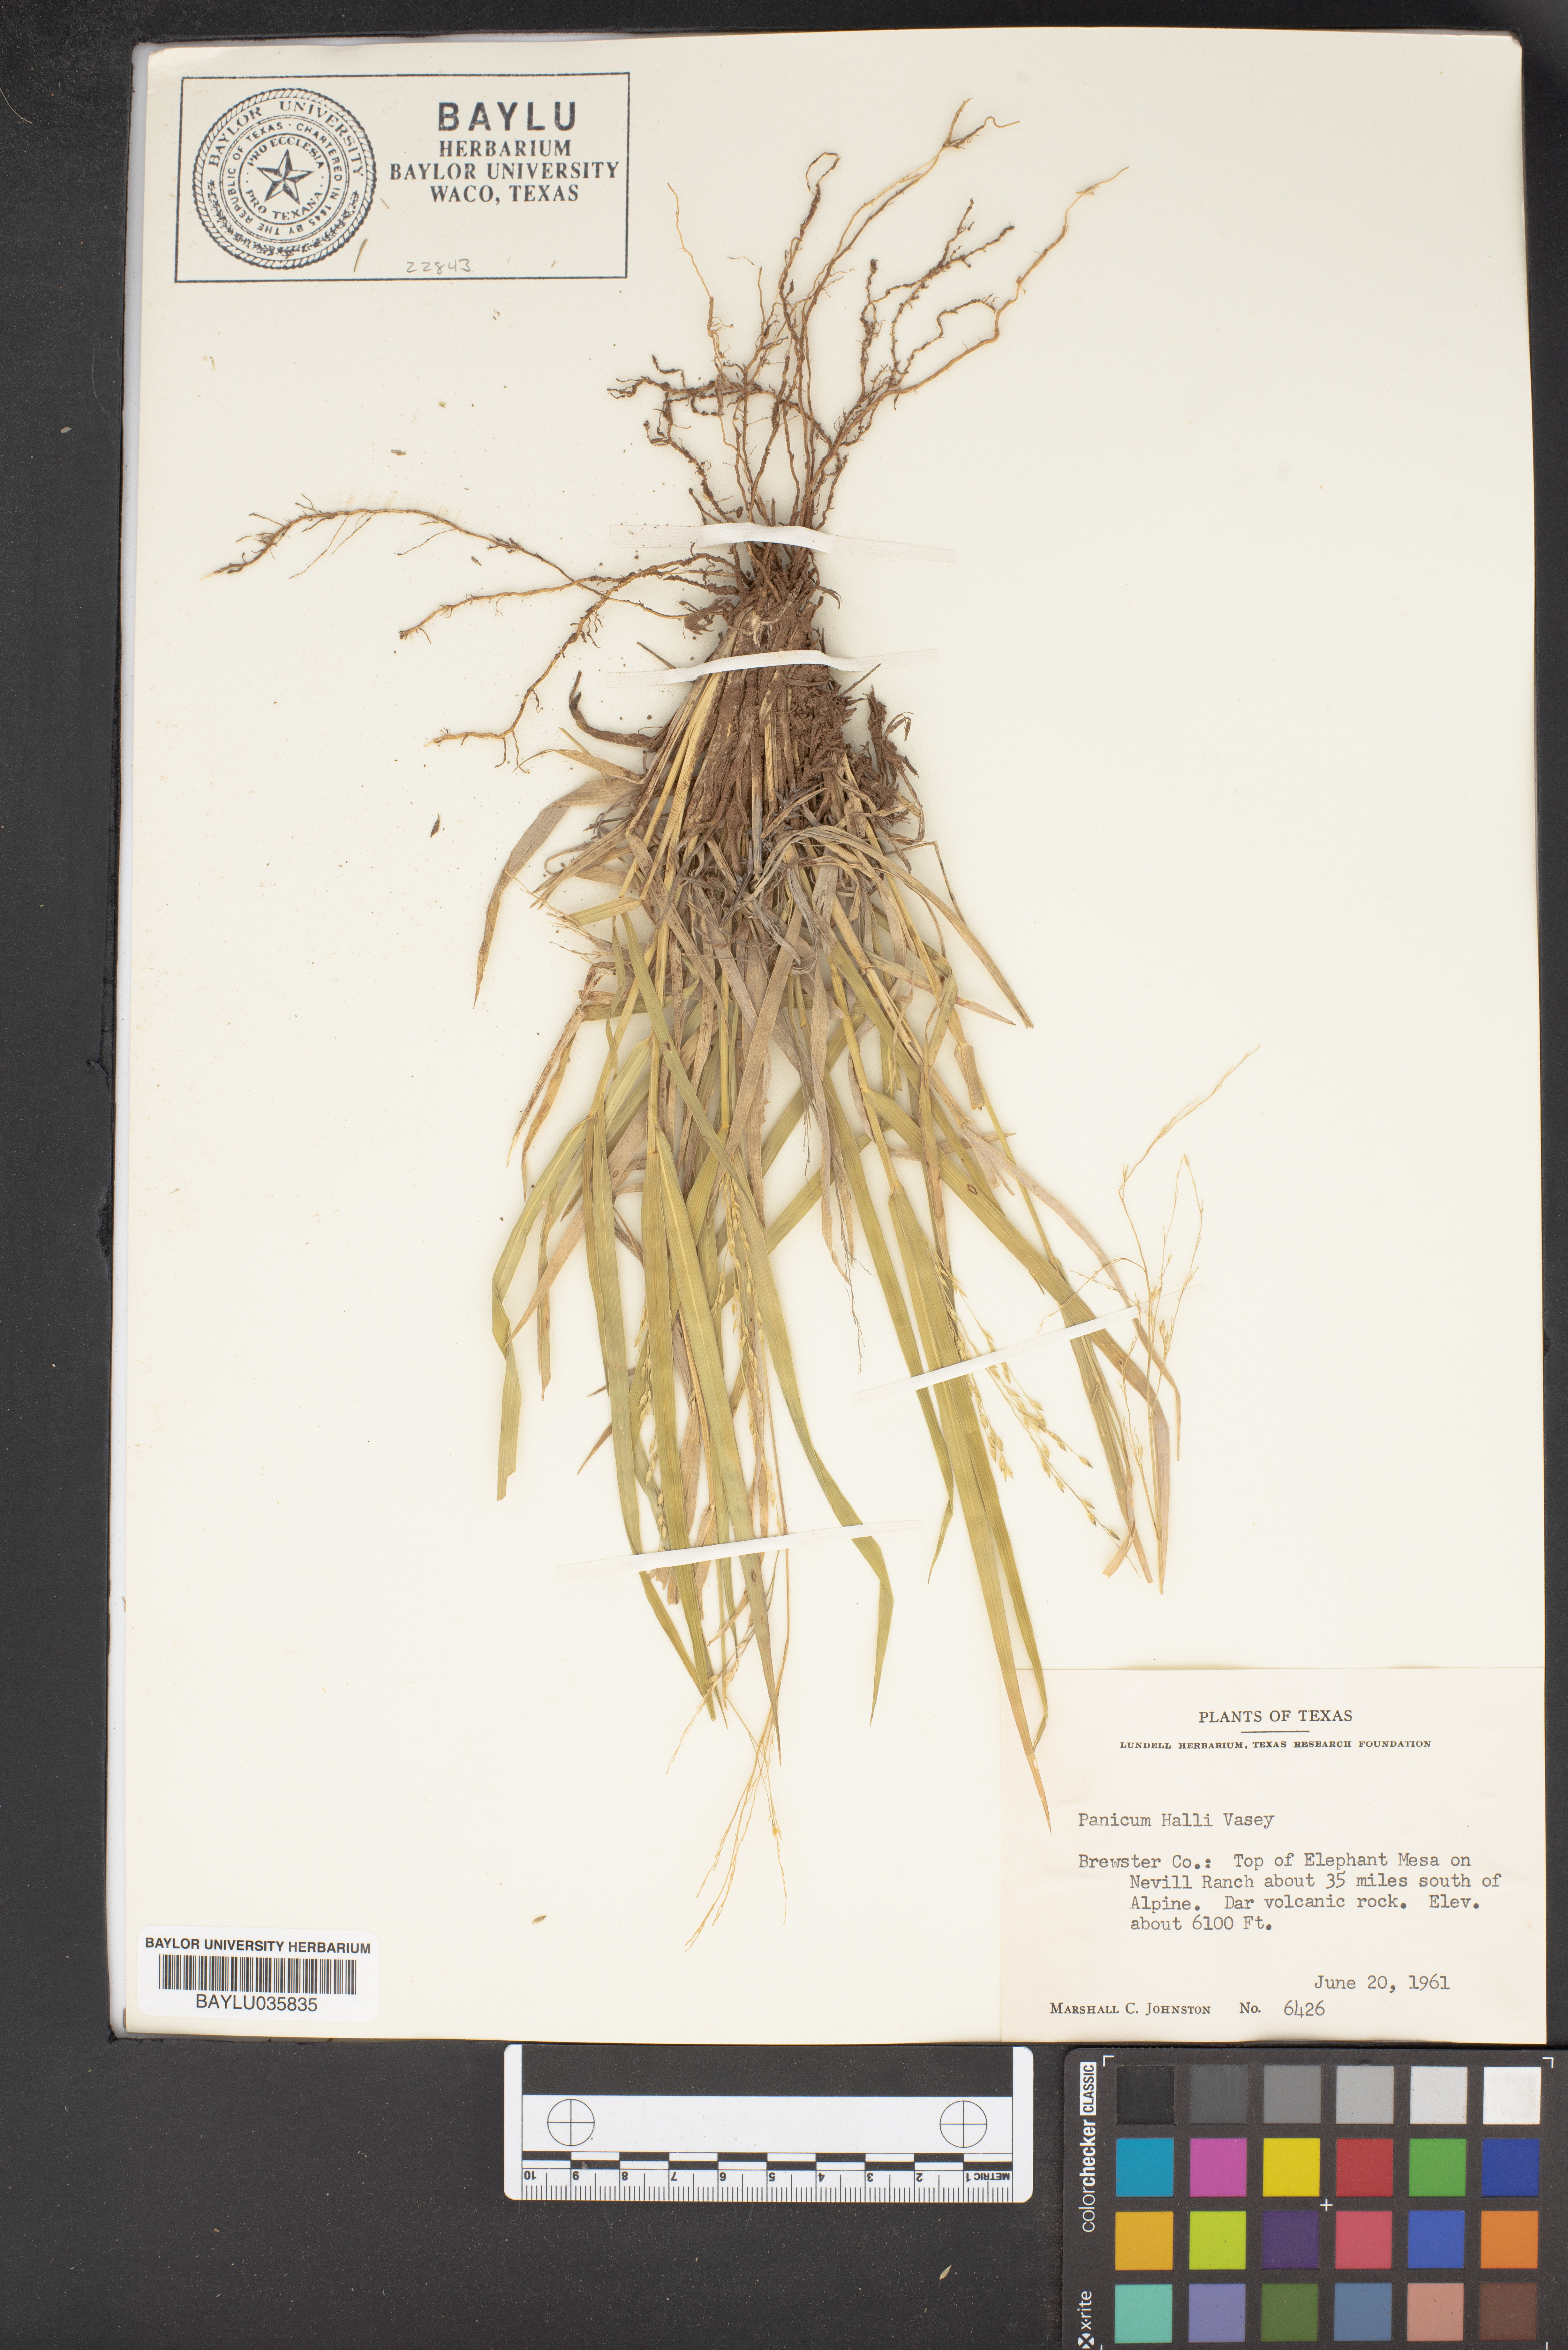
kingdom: Plantae
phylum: Tracheophyta
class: Liliopsida
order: Poales
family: Poaceae
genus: Panicum
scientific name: Panicum hallii
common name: Hall's witchgrass
